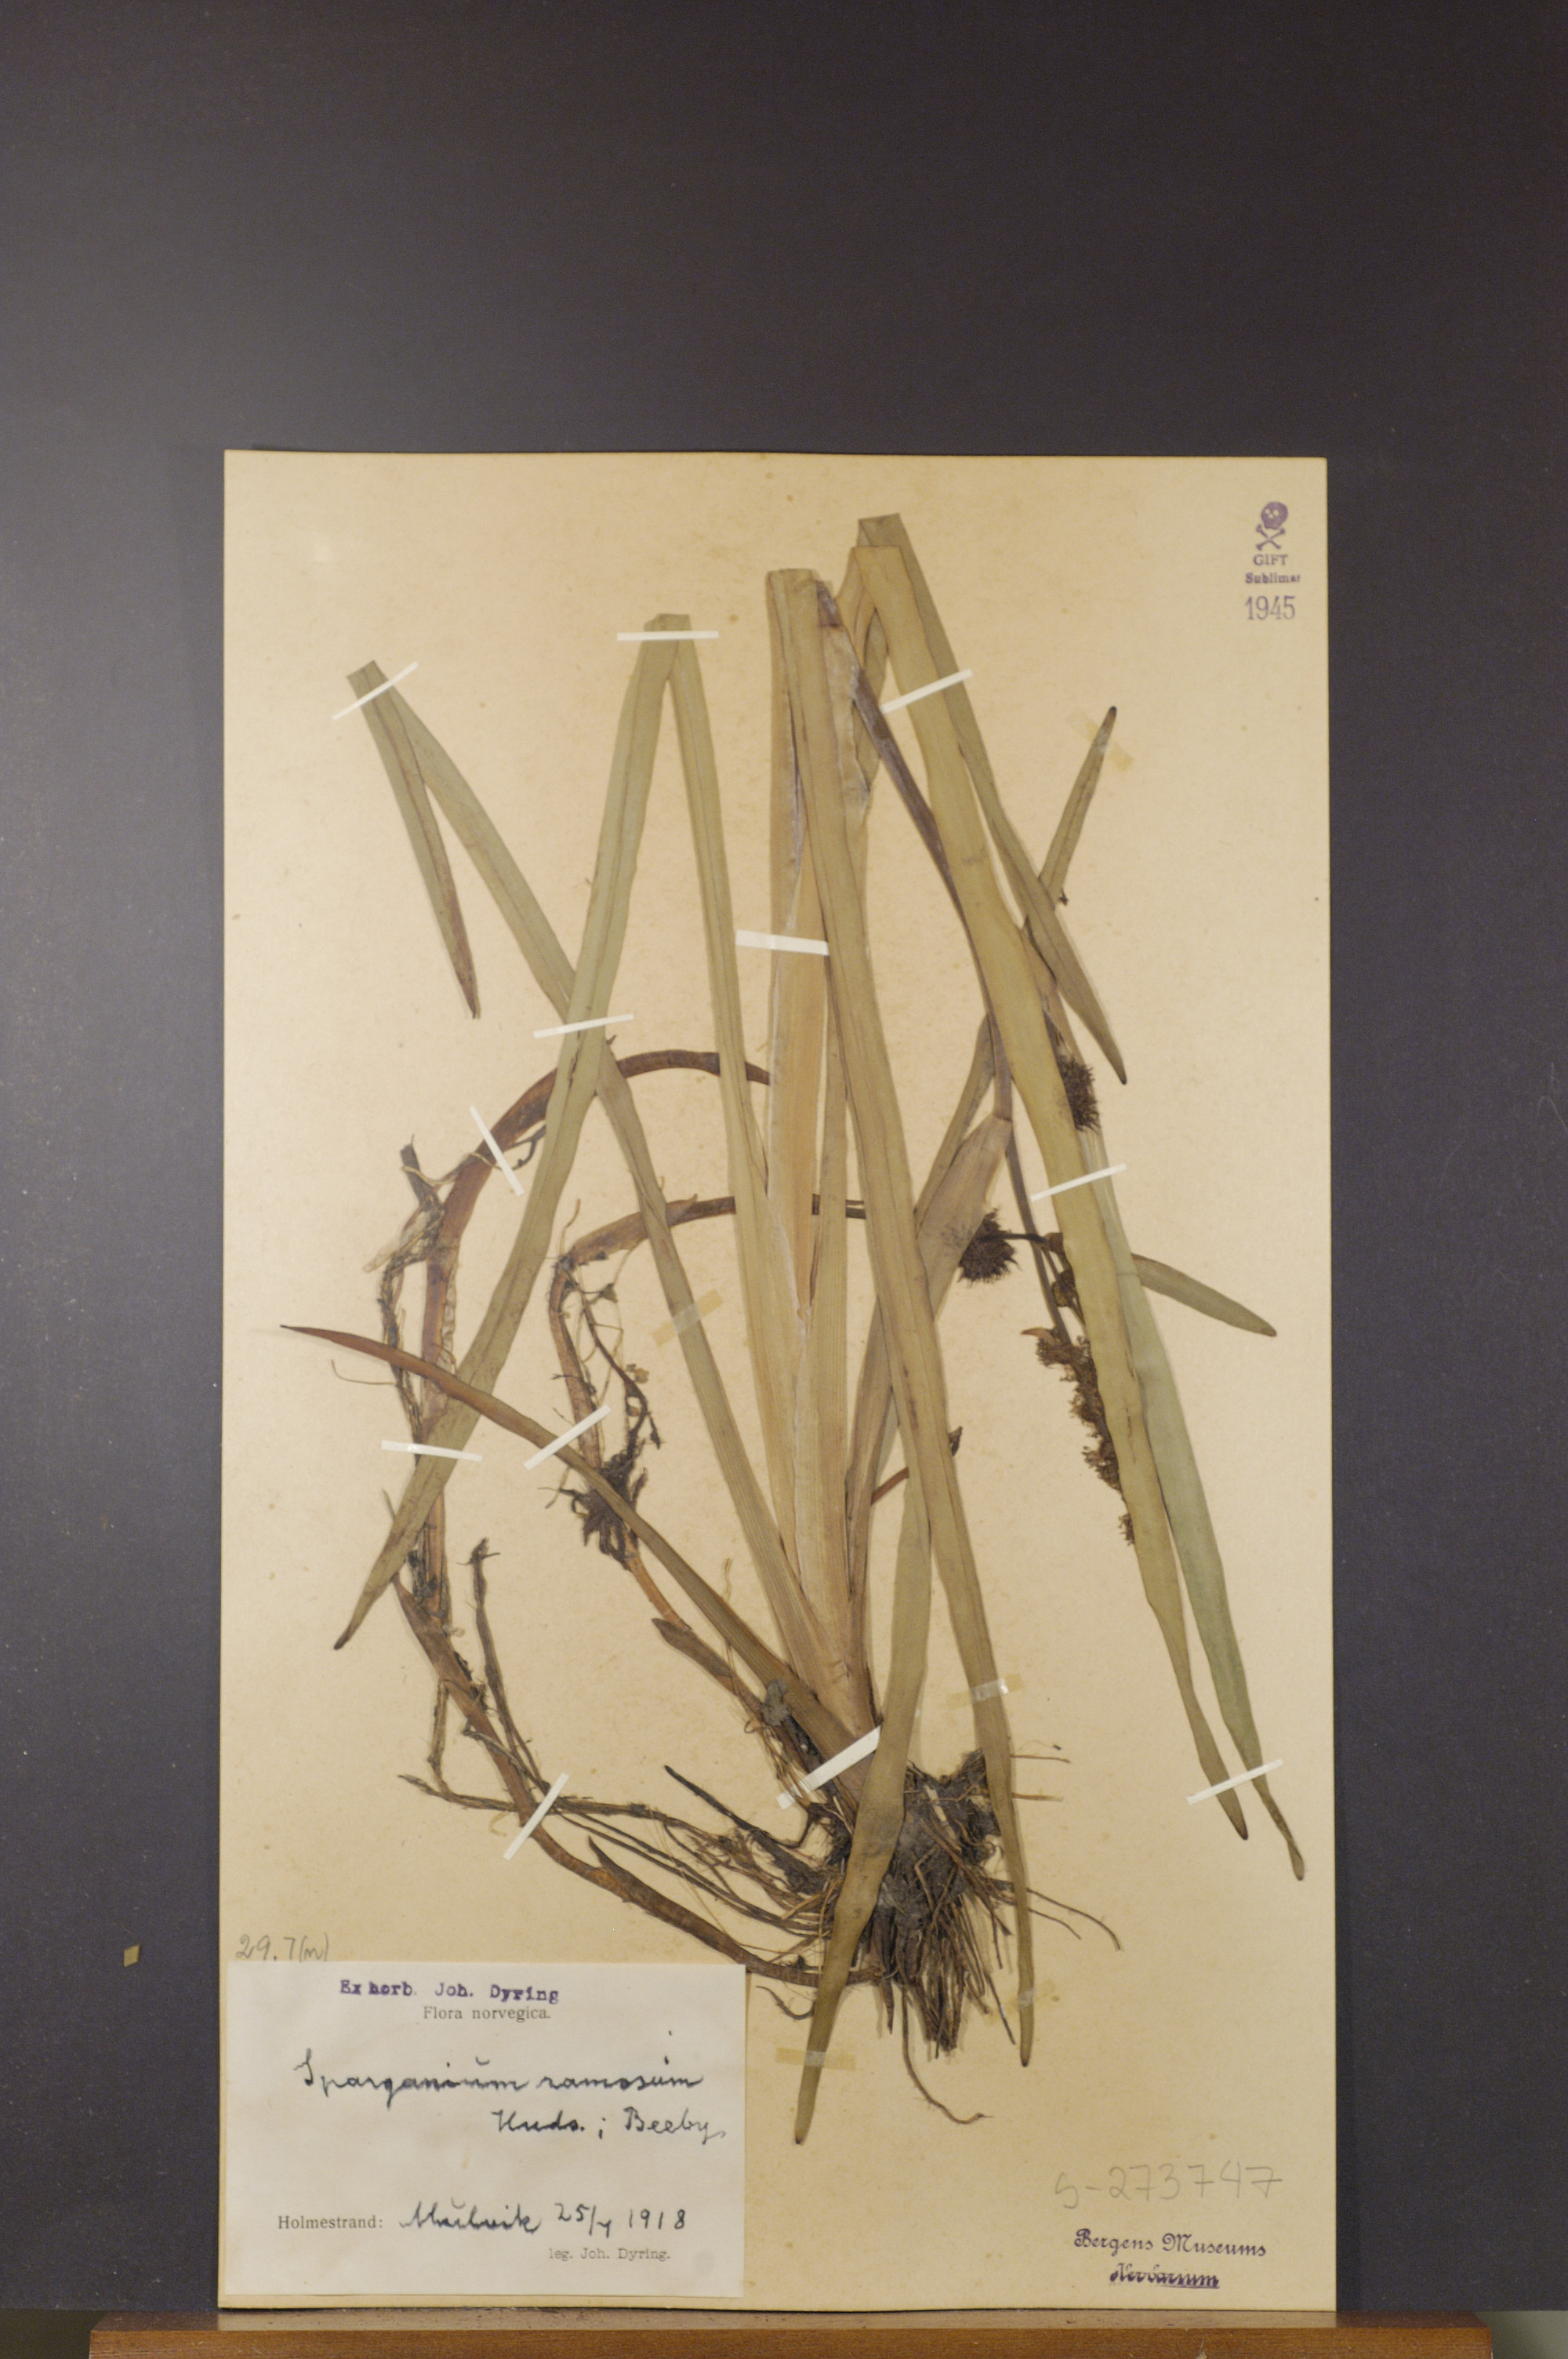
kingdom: Plantae
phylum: Tracheophyta
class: Liliopsida
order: Poales
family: Typhaceae
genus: Sparganium
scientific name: Sparganium erectum
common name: Branched bur-reed
